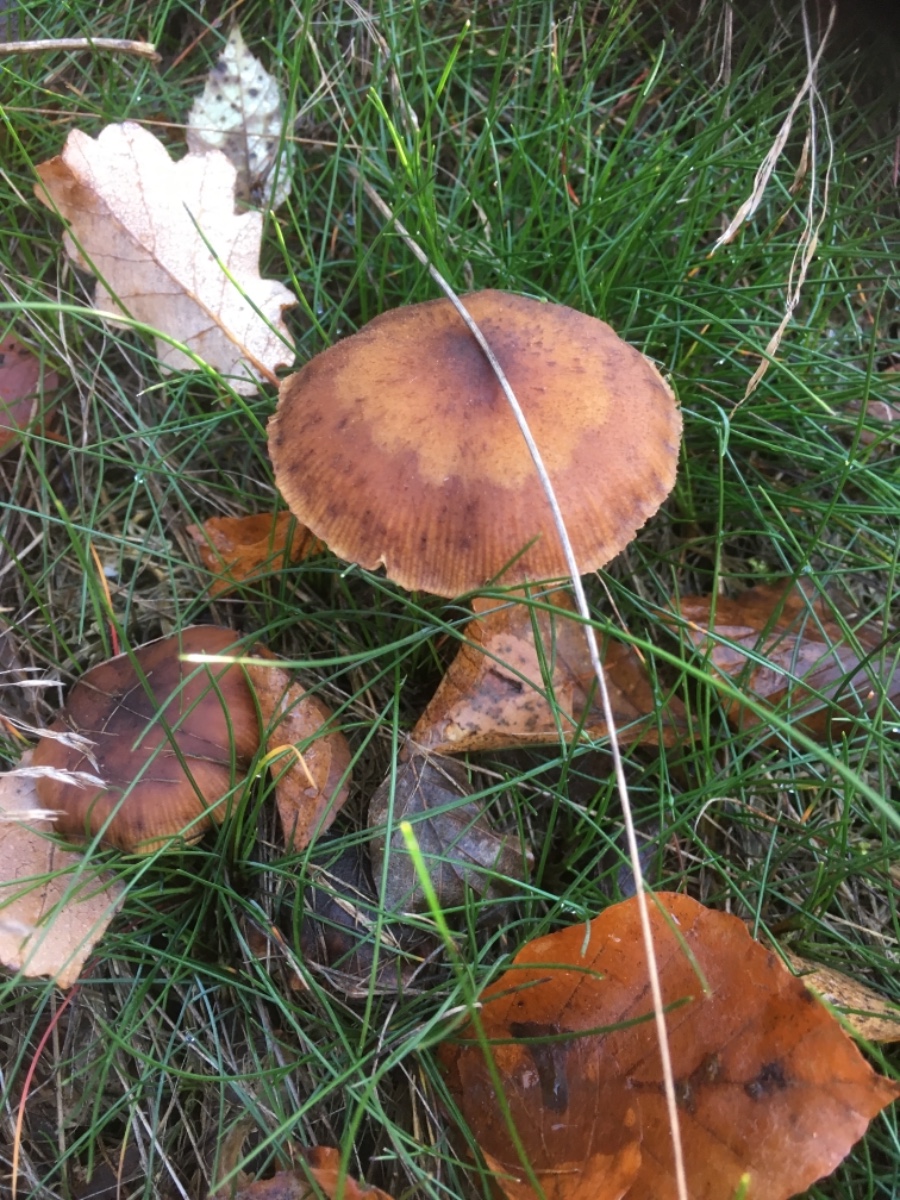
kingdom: Fungi
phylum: Basidiomycota
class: Agaricomycetes
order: Agaricales
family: Physalacriaceae
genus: Armillaria
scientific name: Armillaria
